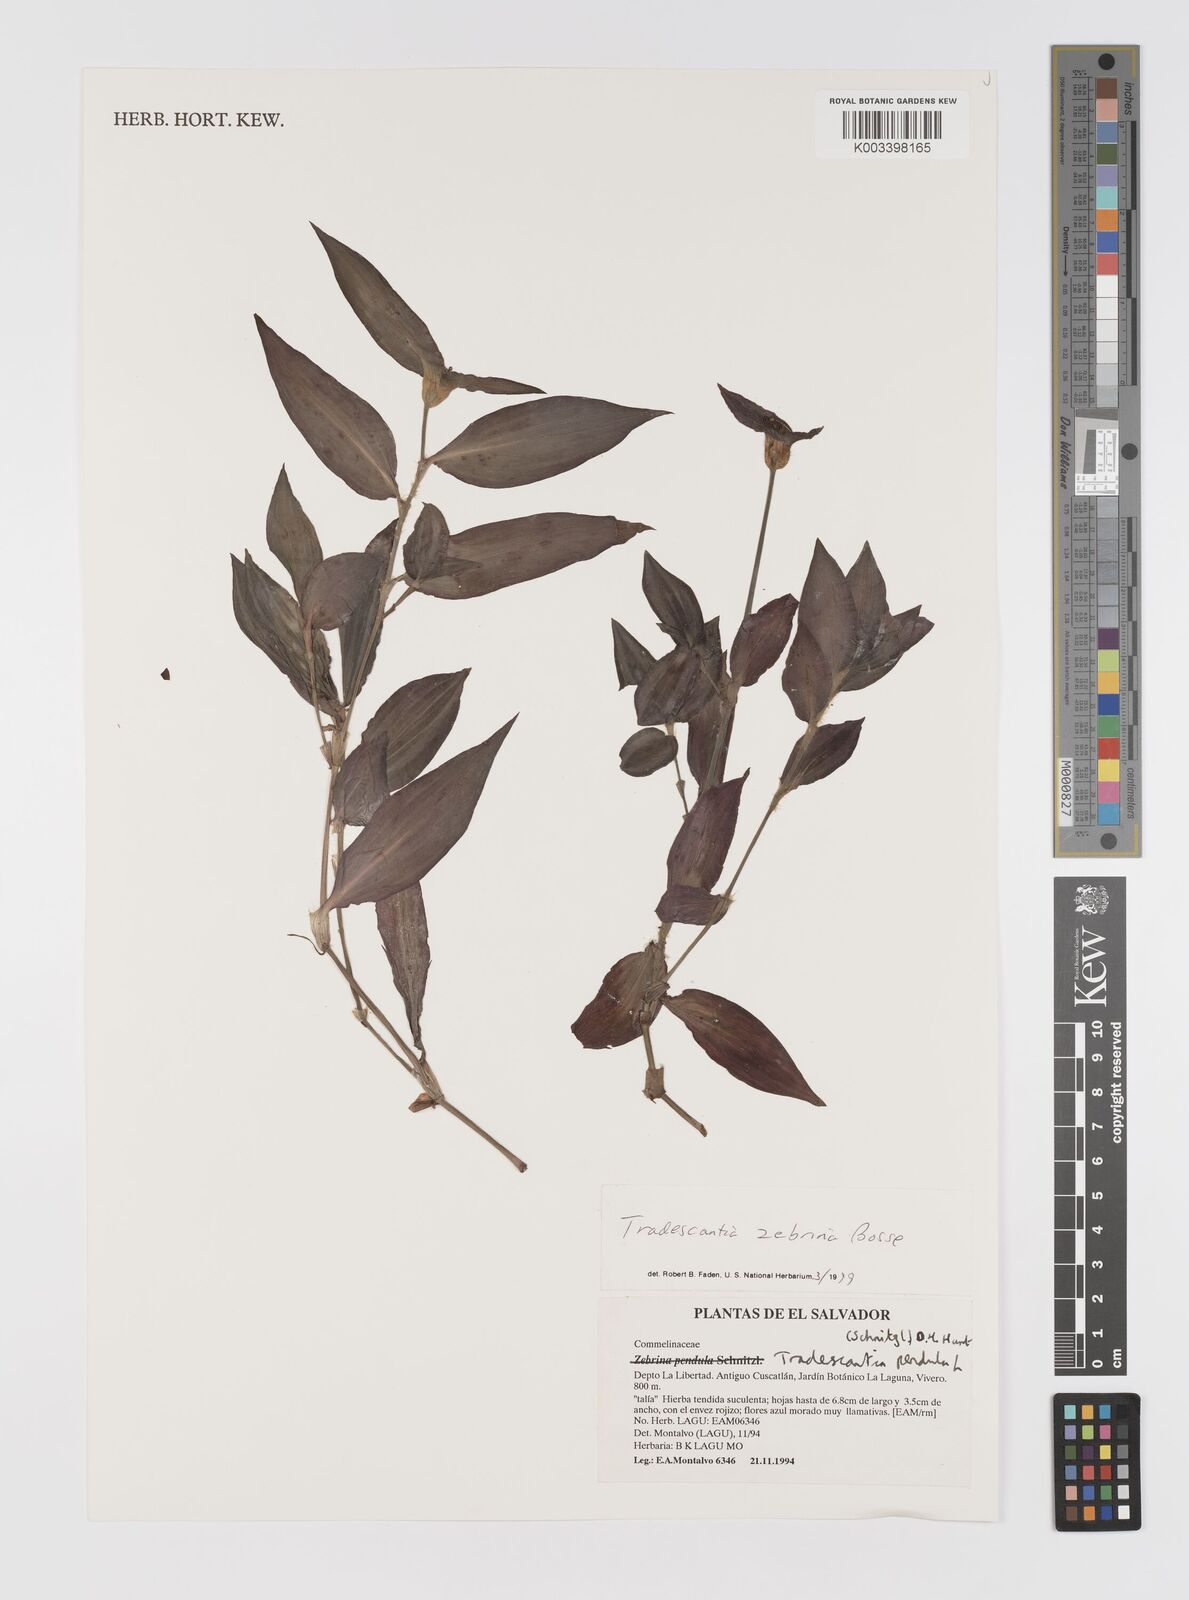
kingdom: Plantae
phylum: Tracheophyta
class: Liliopsida
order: Commelinales
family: Commelinaceae
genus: Tradescantia
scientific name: Tradescantia zebrina
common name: Inchplant
